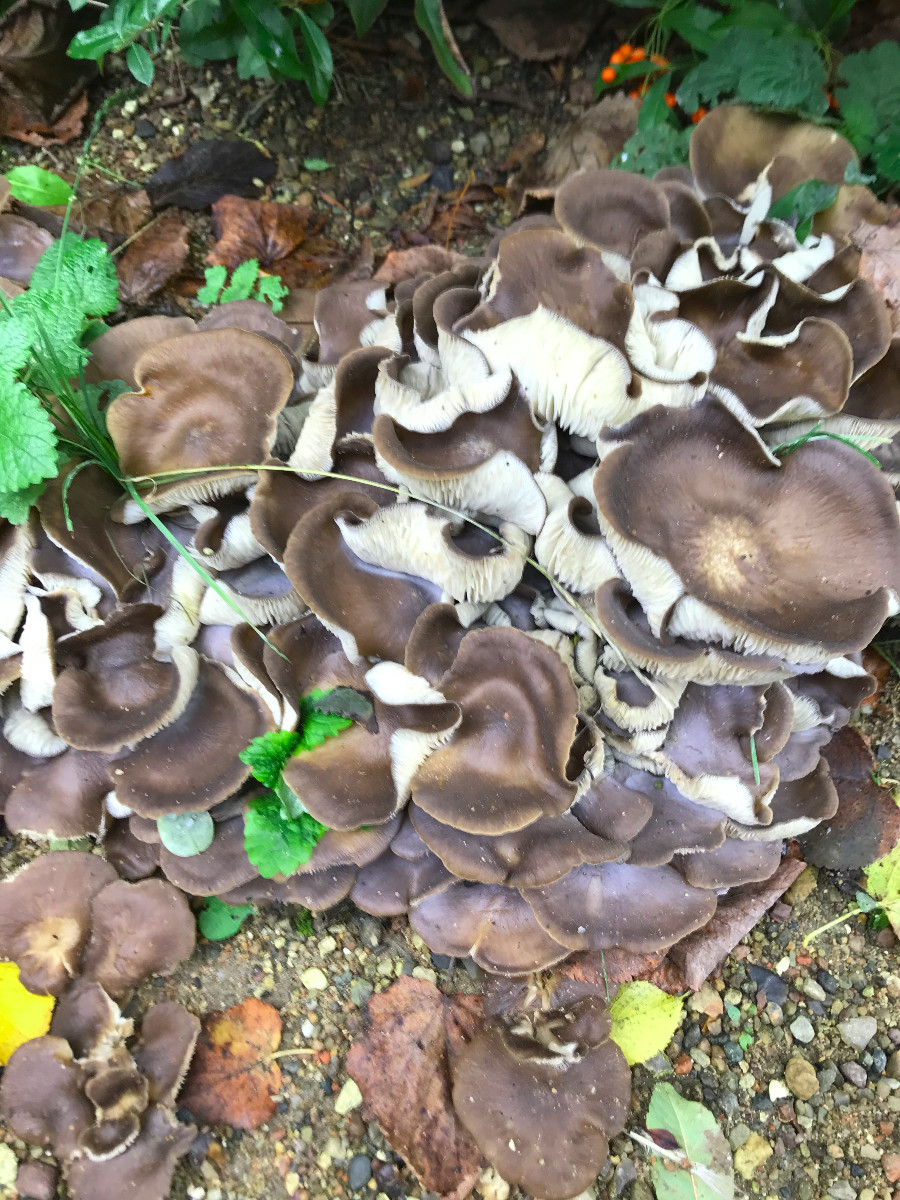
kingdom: Fungi
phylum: Basidiomycota
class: Agaricomycetes
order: Agaricales
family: Lyophyllaceae
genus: Lyophyllum
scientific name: Lyophyllum decastes
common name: røggrå gråblad
